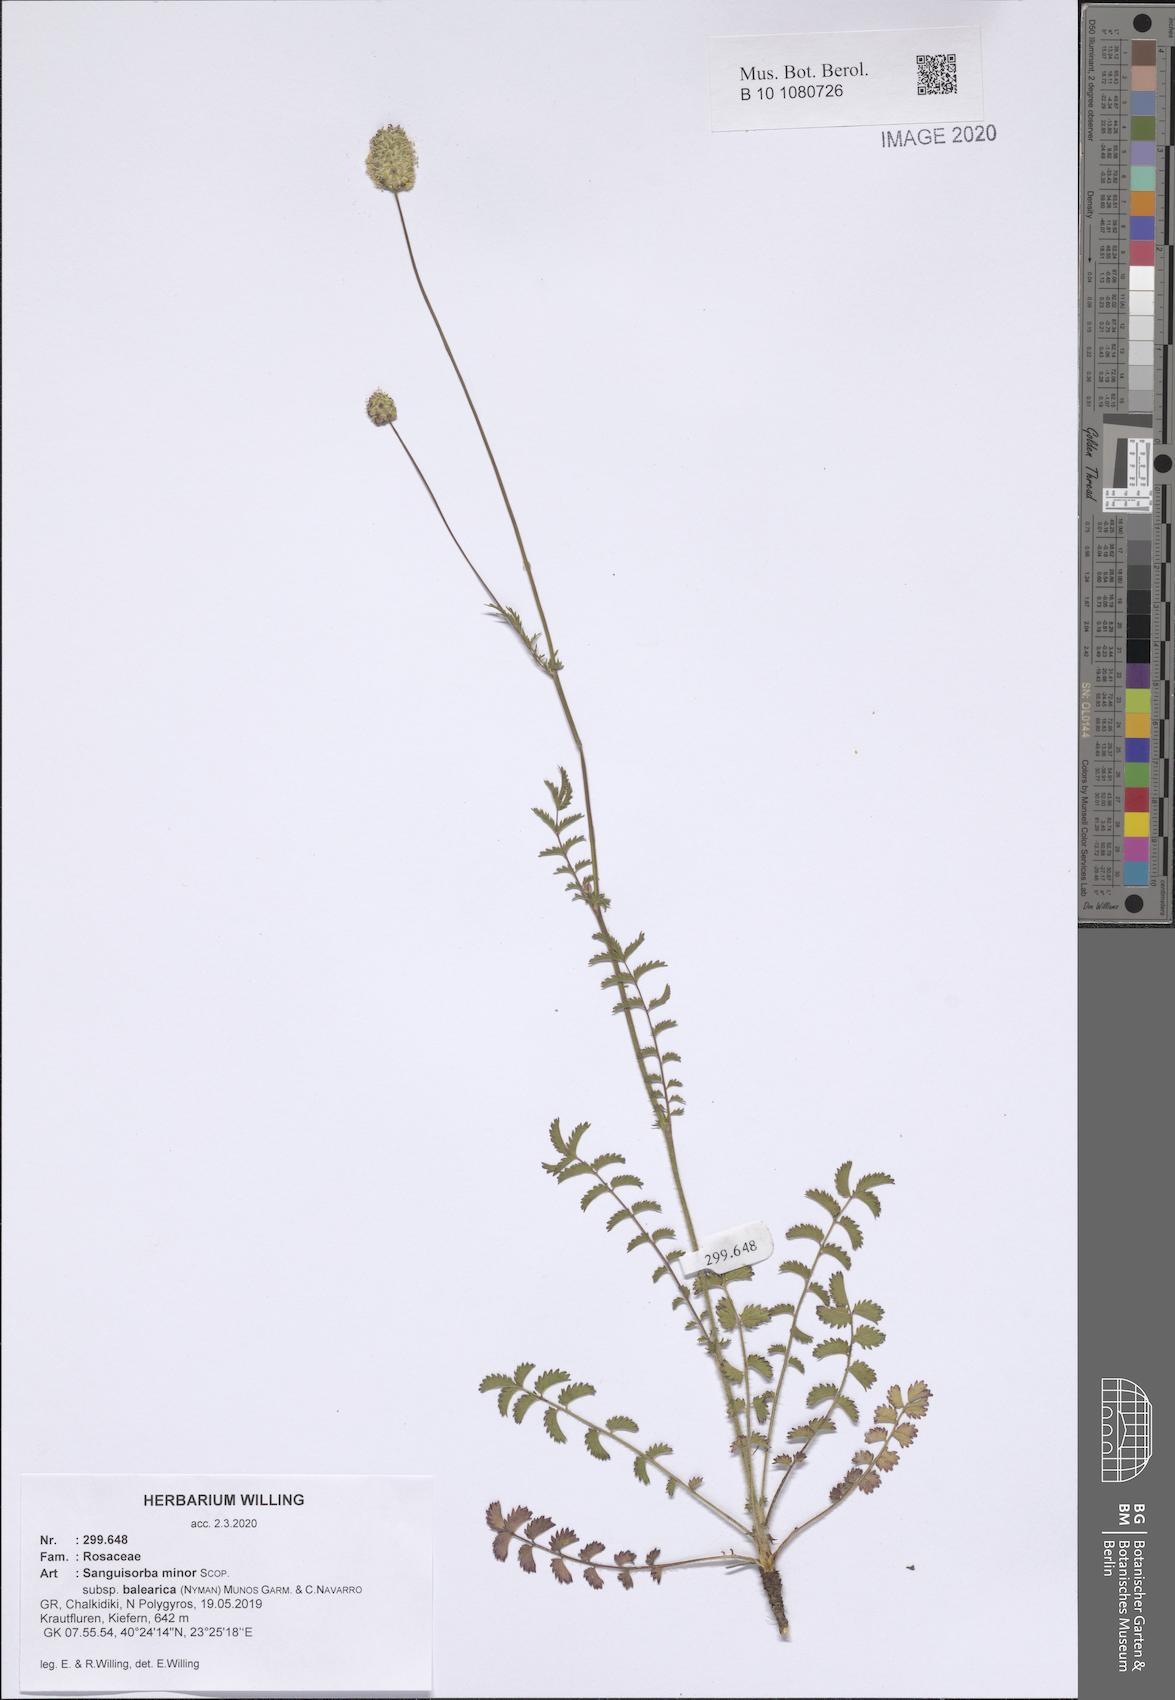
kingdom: Plantae
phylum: Tracheophyta
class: Magnoliopsida
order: Rosales
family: Rosaceae
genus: Poterium
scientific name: Poterium sanguisorba
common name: Salad burnet
